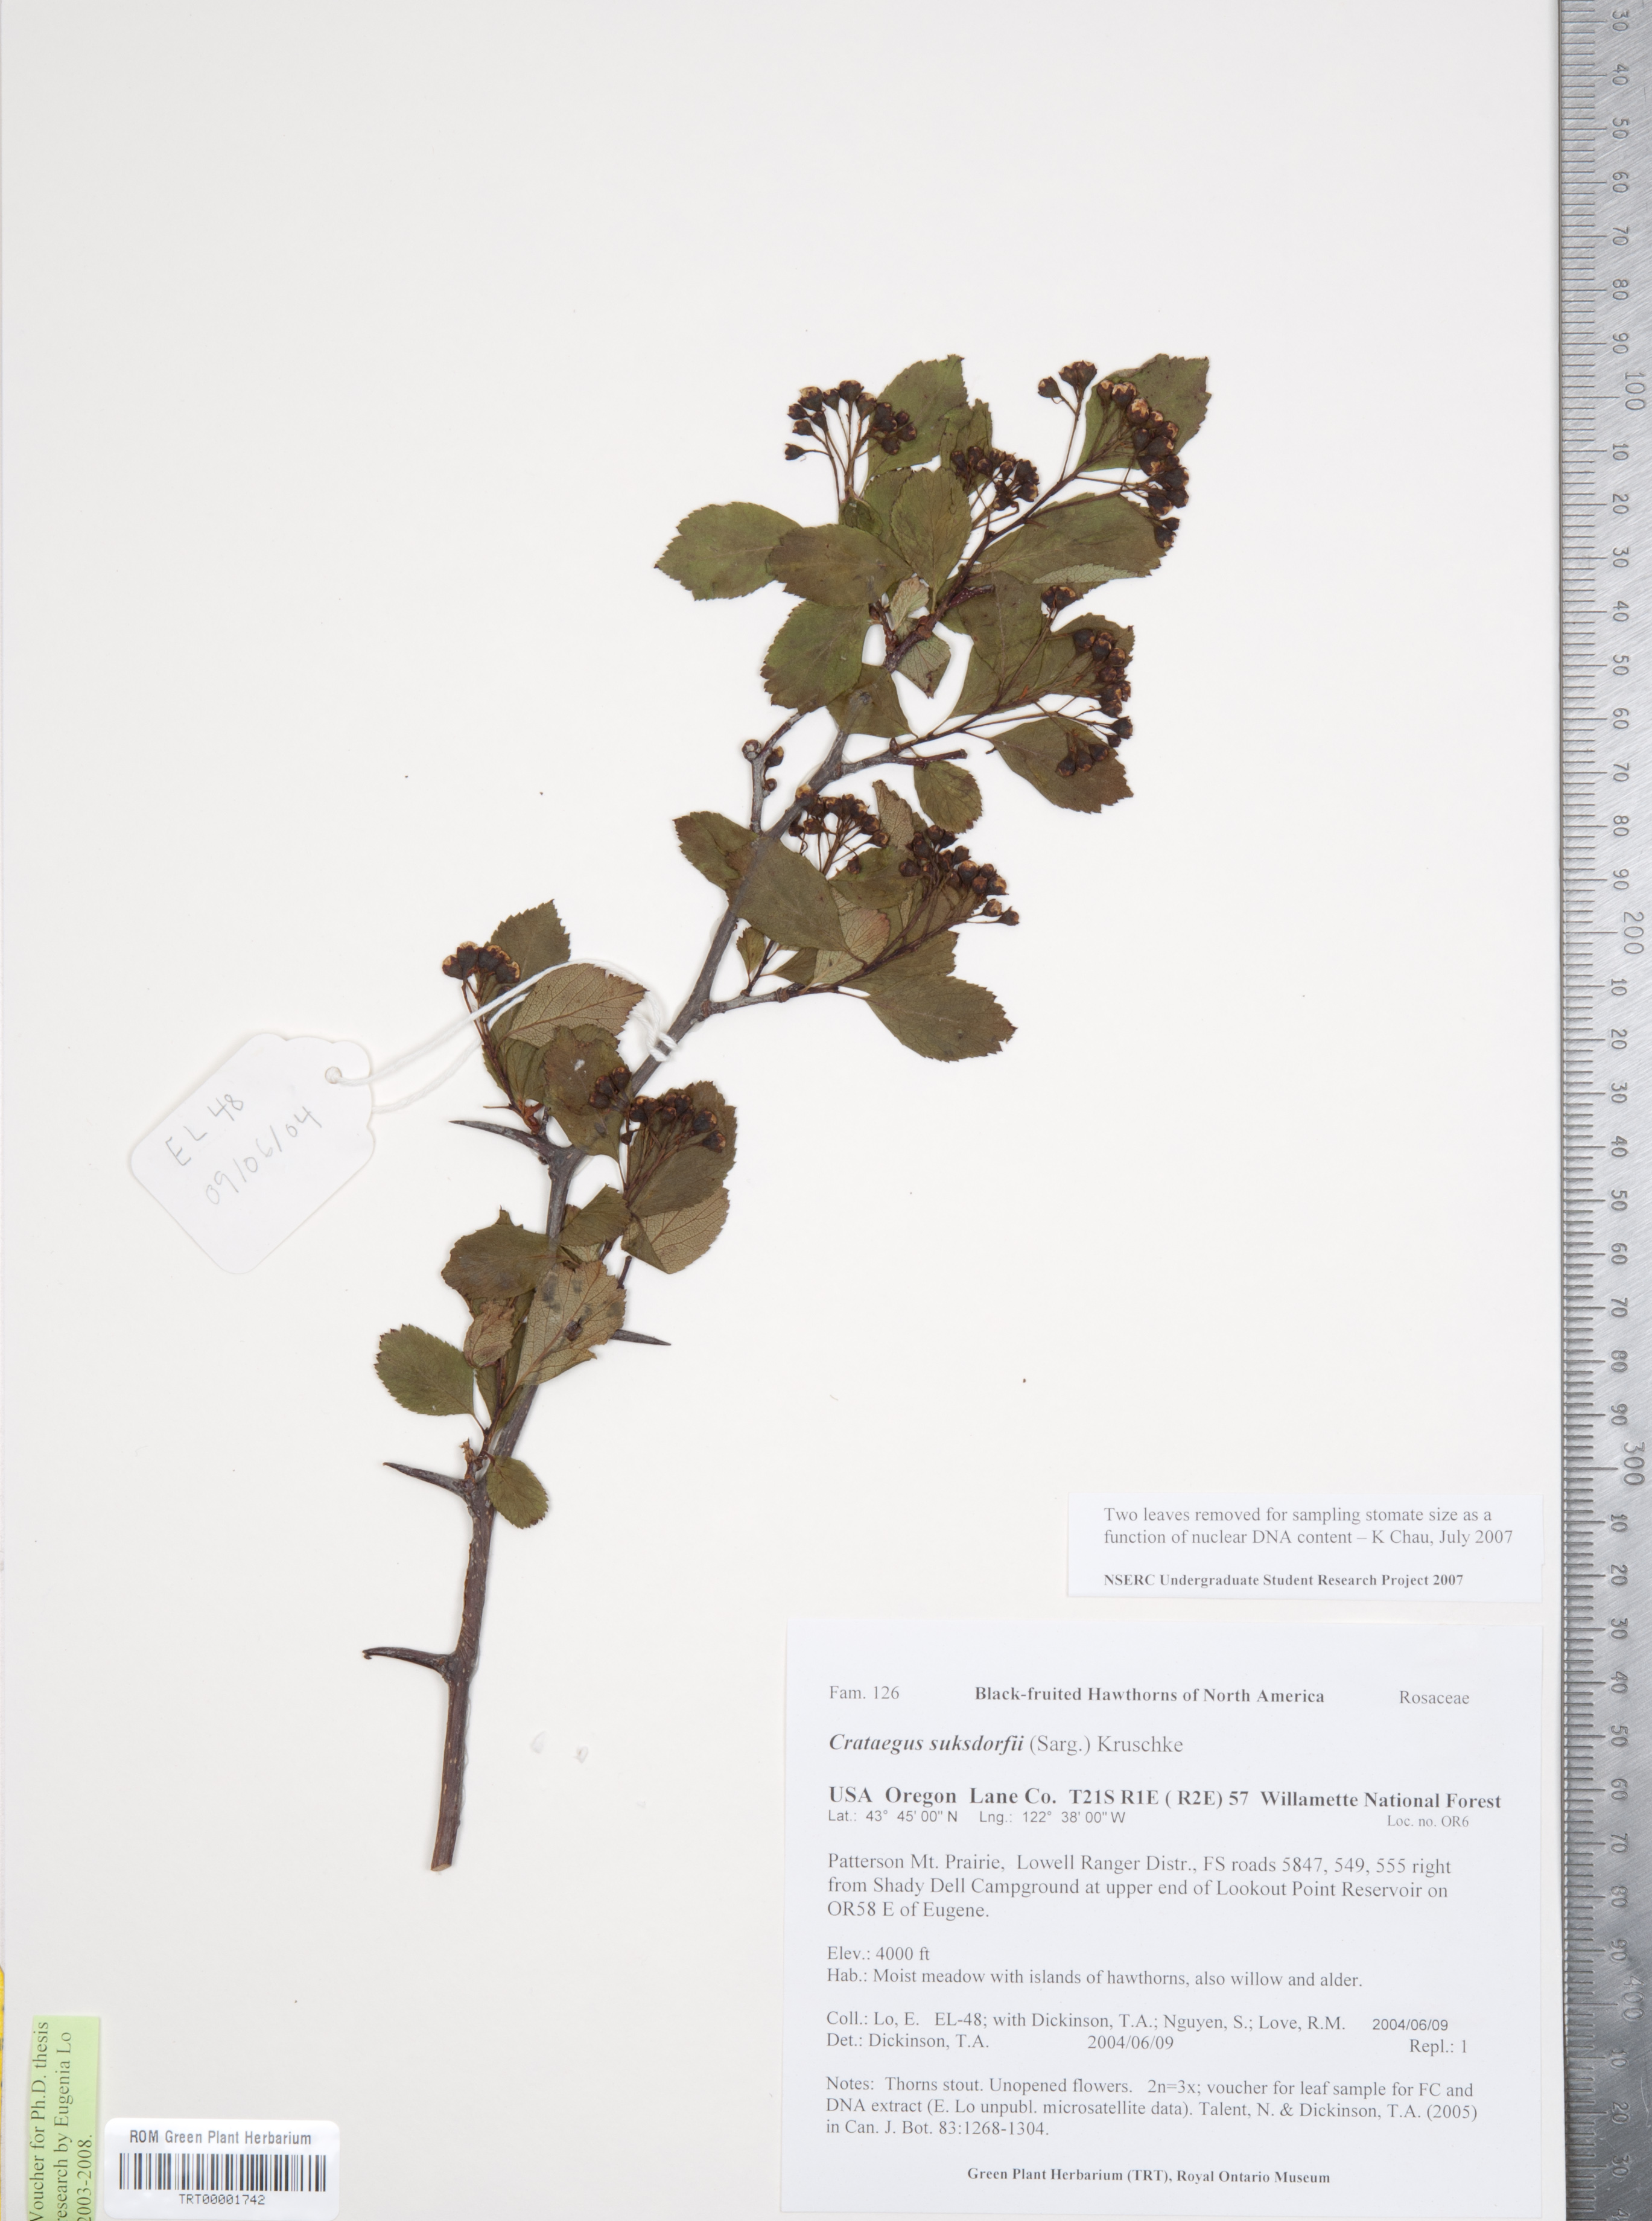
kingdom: Plantae
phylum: Tracheophyta
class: Magnoliopsida
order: Rosales
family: Rosaceae
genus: Crataegus
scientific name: Crataegus gaylussacia
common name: Huckleberry hawthorn
